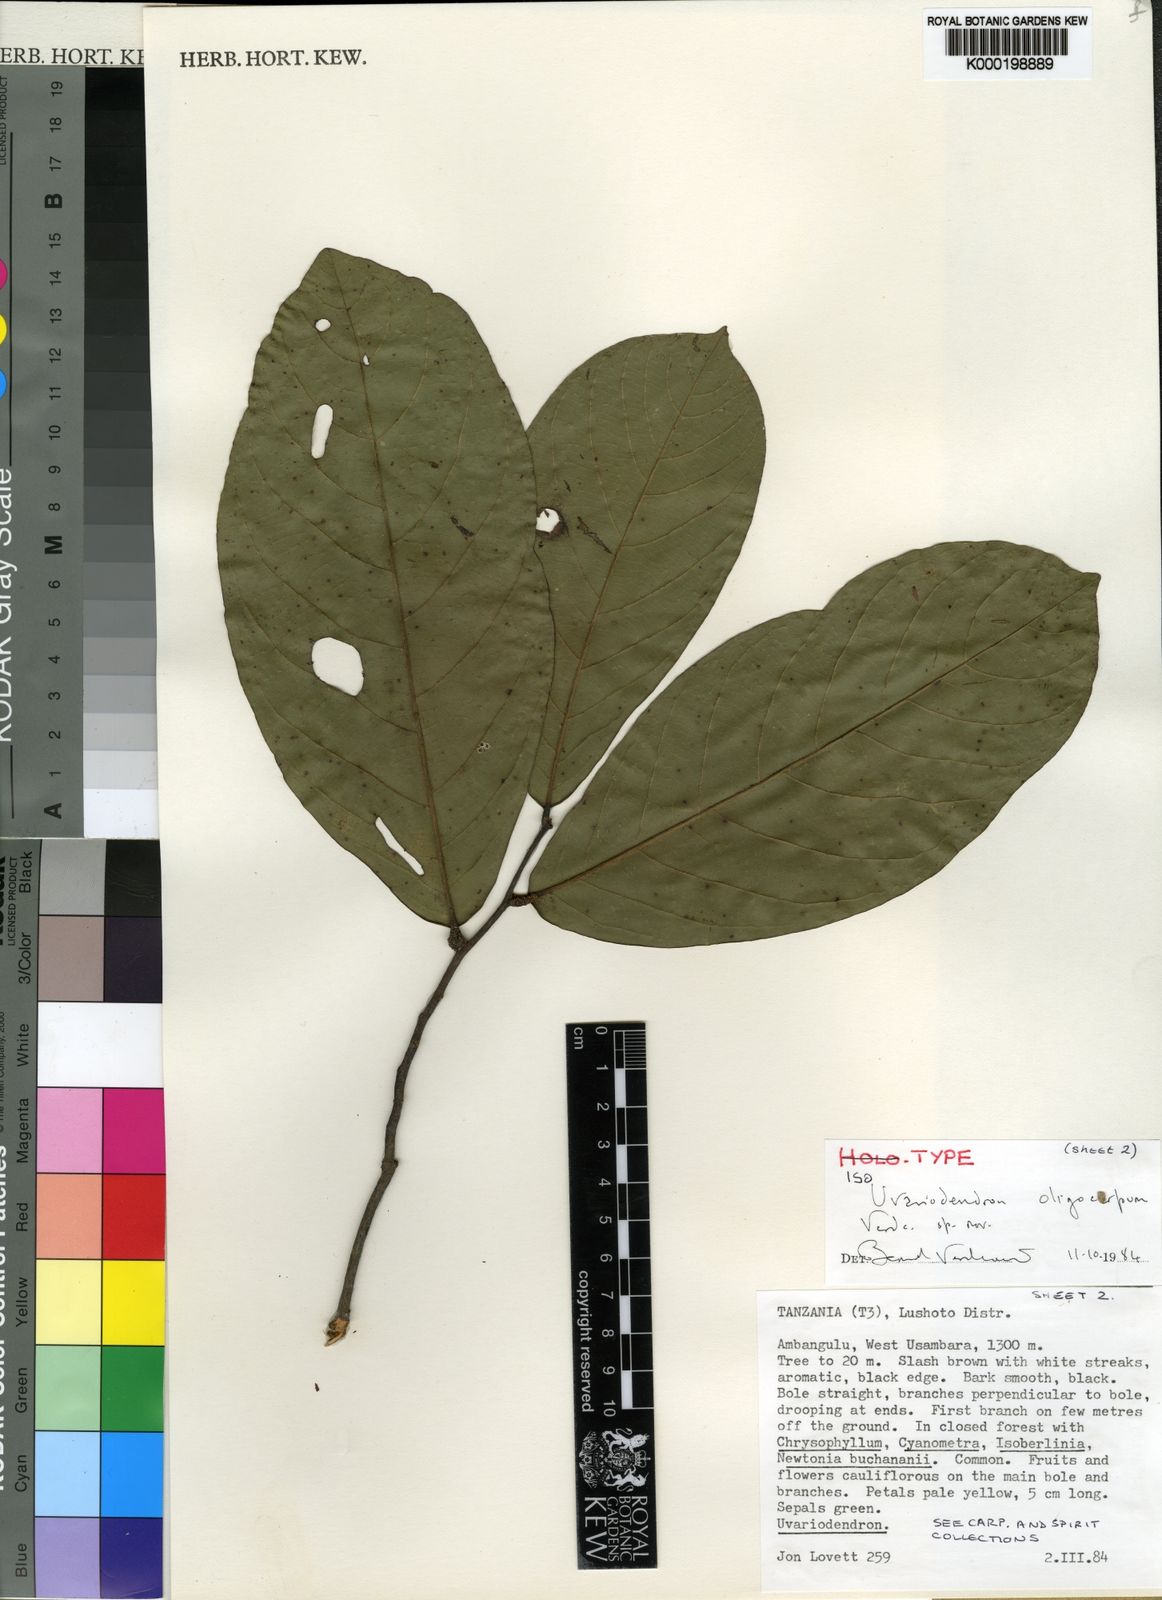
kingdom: Plantae
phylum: Tracheophyta
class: Magnoliopsida
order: Magnoliales
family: Annonaceae
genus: Uvariodendron
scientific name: Uvariodendron oligocarpum
